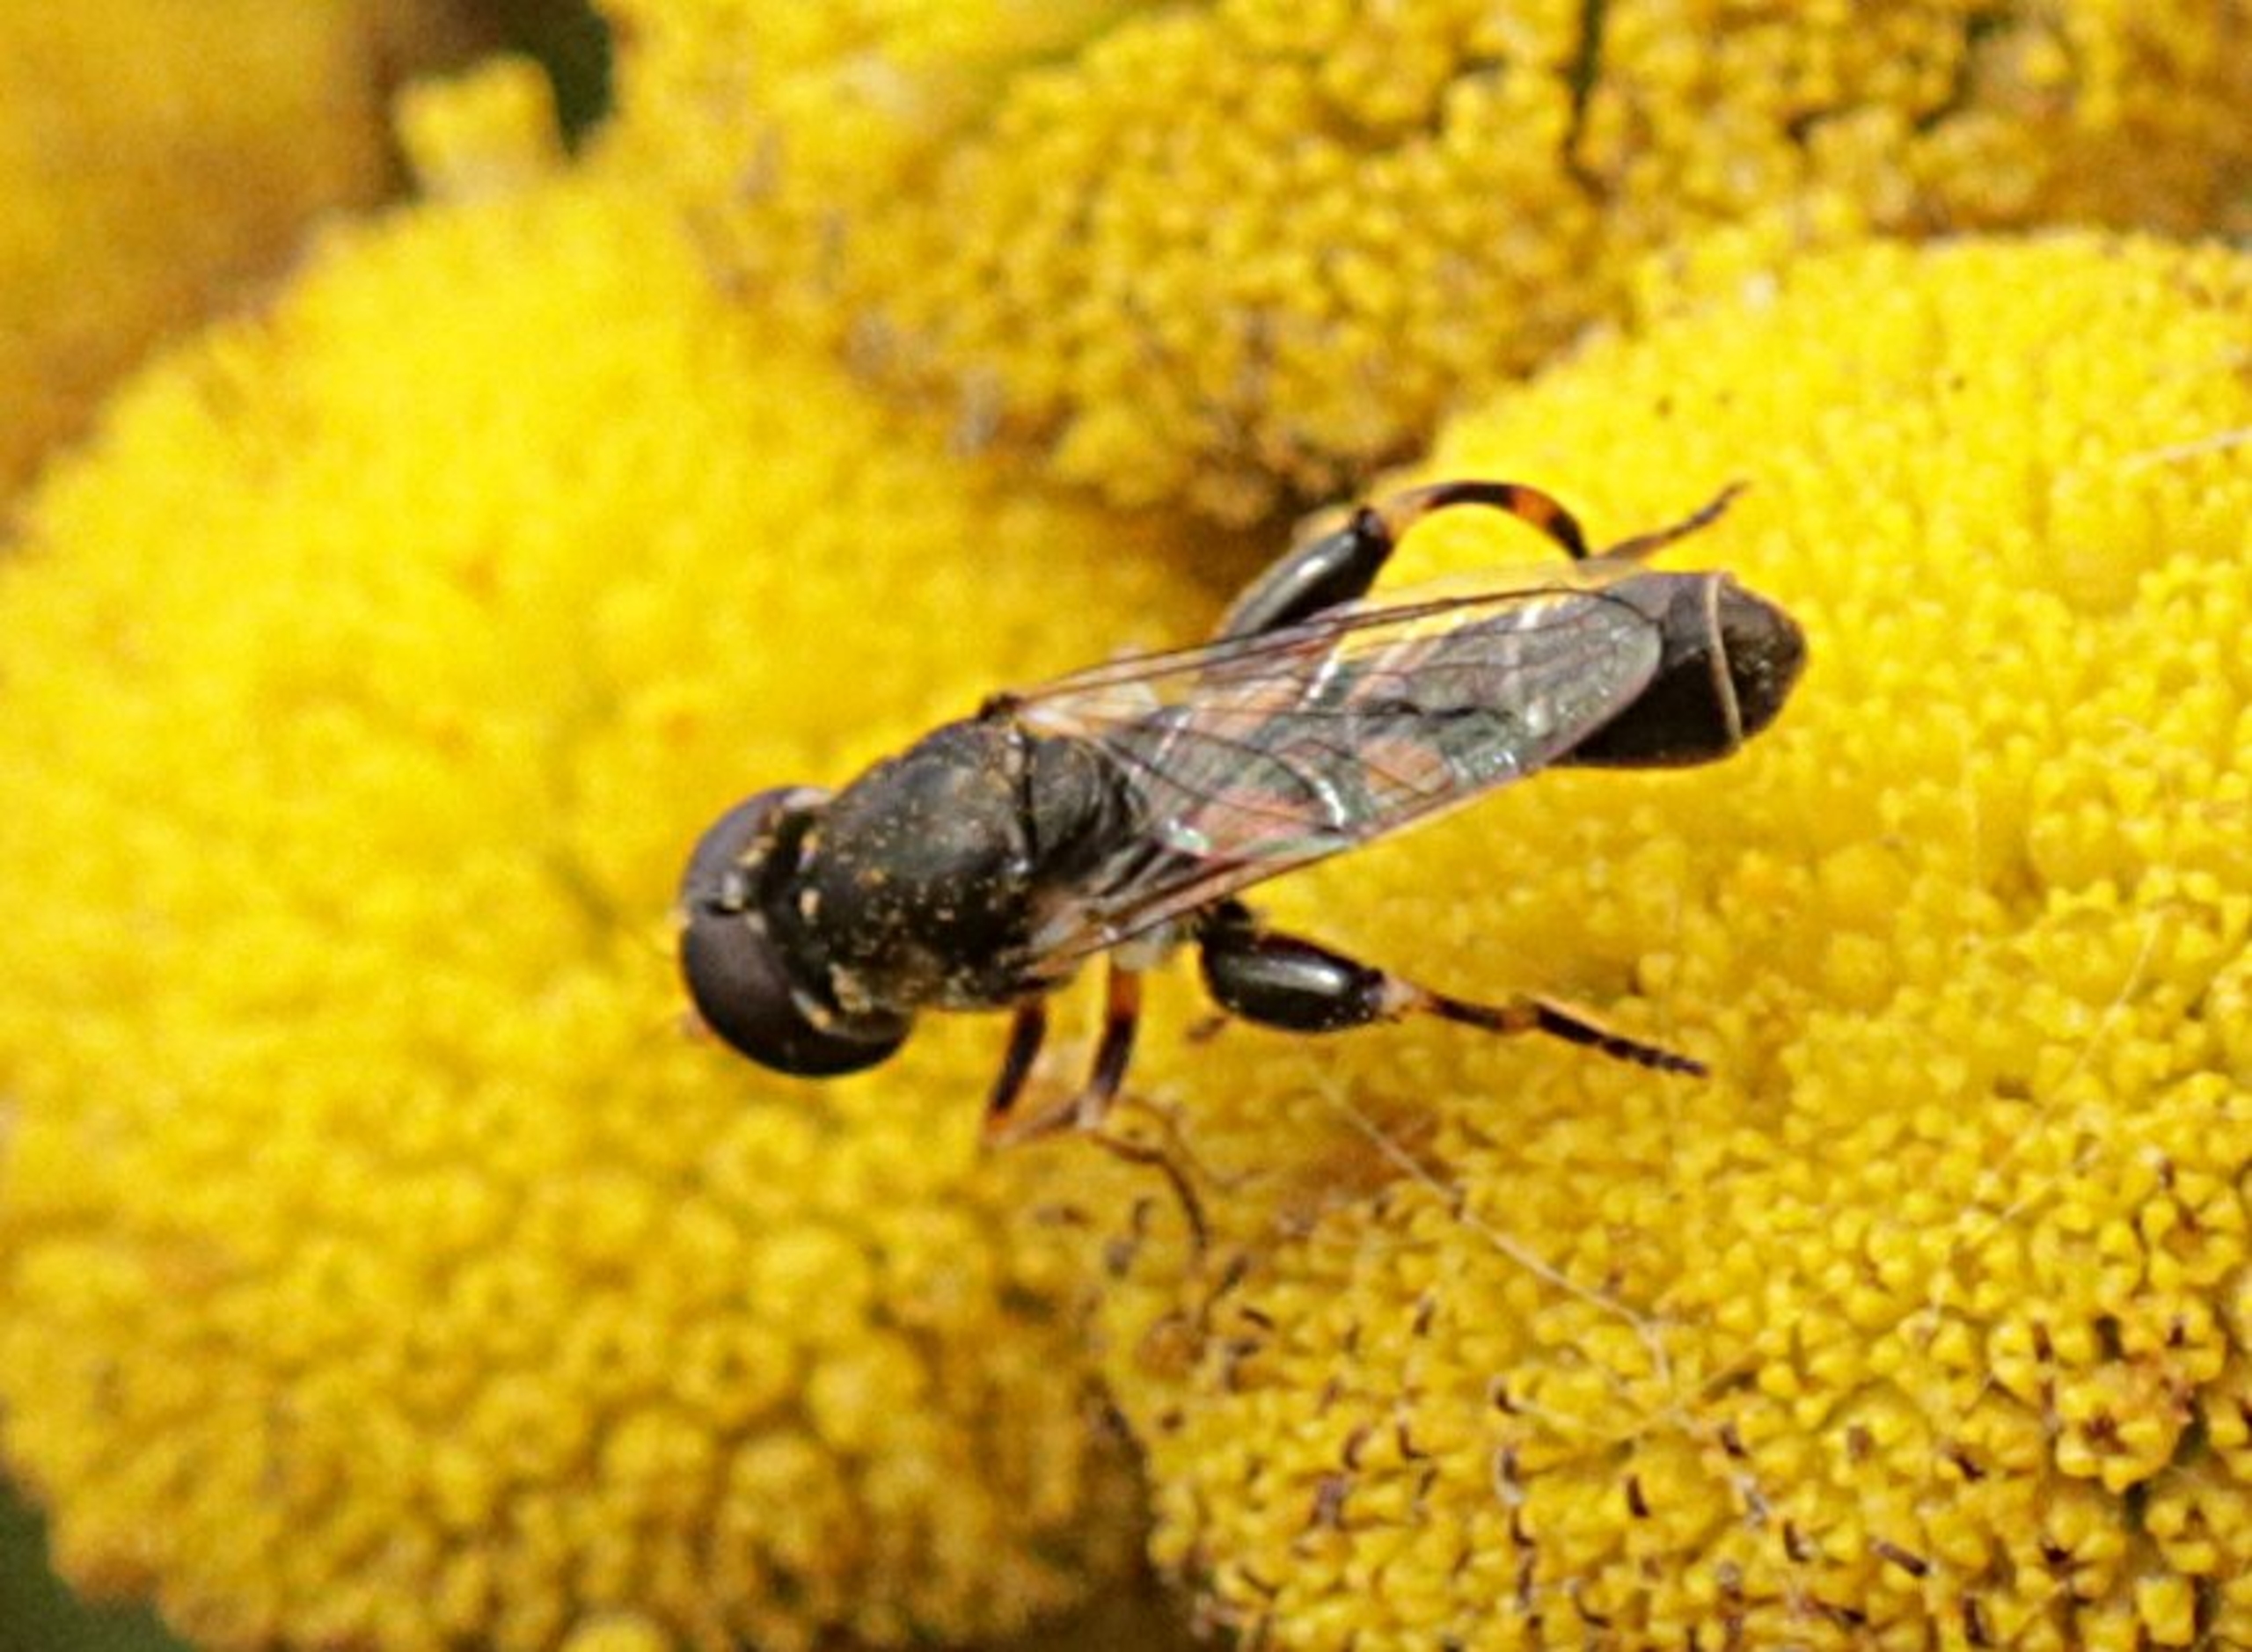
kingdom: Animalia
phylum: Arthropoda
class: Insecta
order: Diptera
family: Syrphidae
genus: Syritta
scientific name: Syritta pipiens
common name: Kompost-svirreflue
